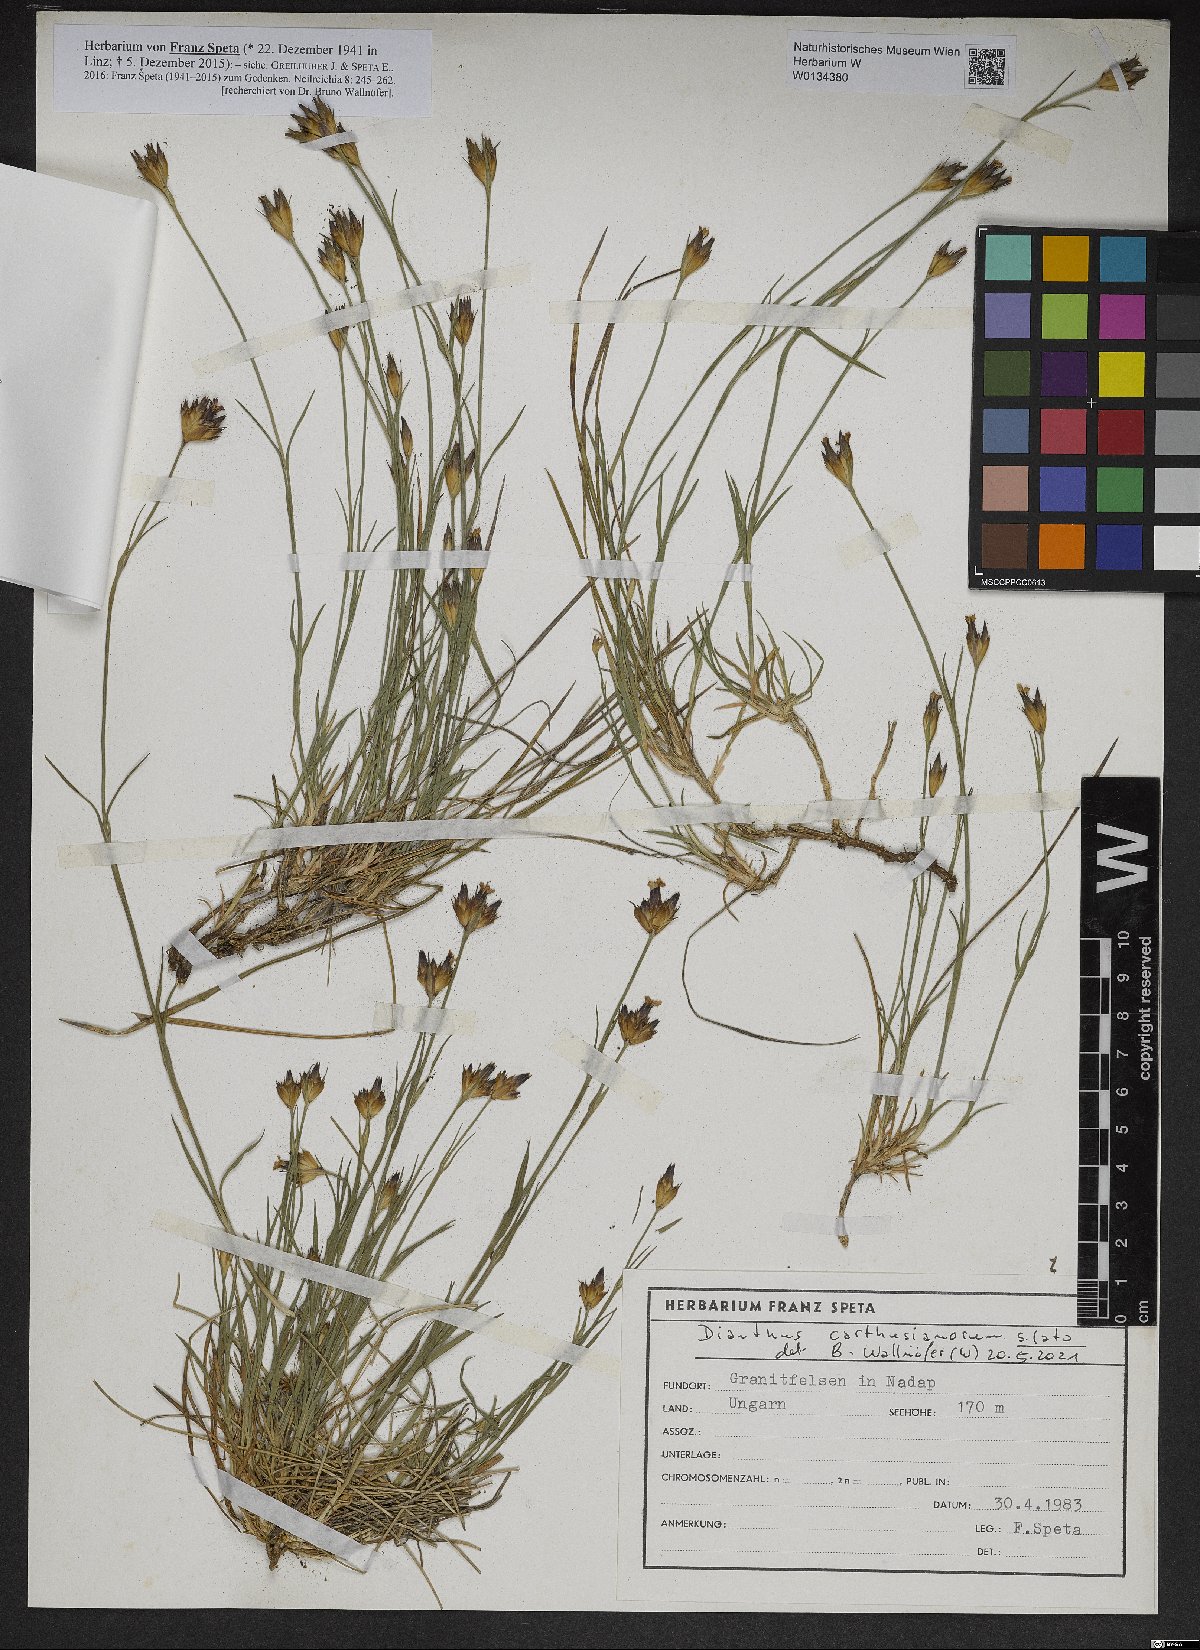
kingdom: Plantae
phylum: Tracheophyta
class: Magnoliopsida
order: Caryophyllales
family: Caryophyllaceae
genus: Dianthus
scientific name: Dianthus carthusianorum
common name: Carthusian pink
